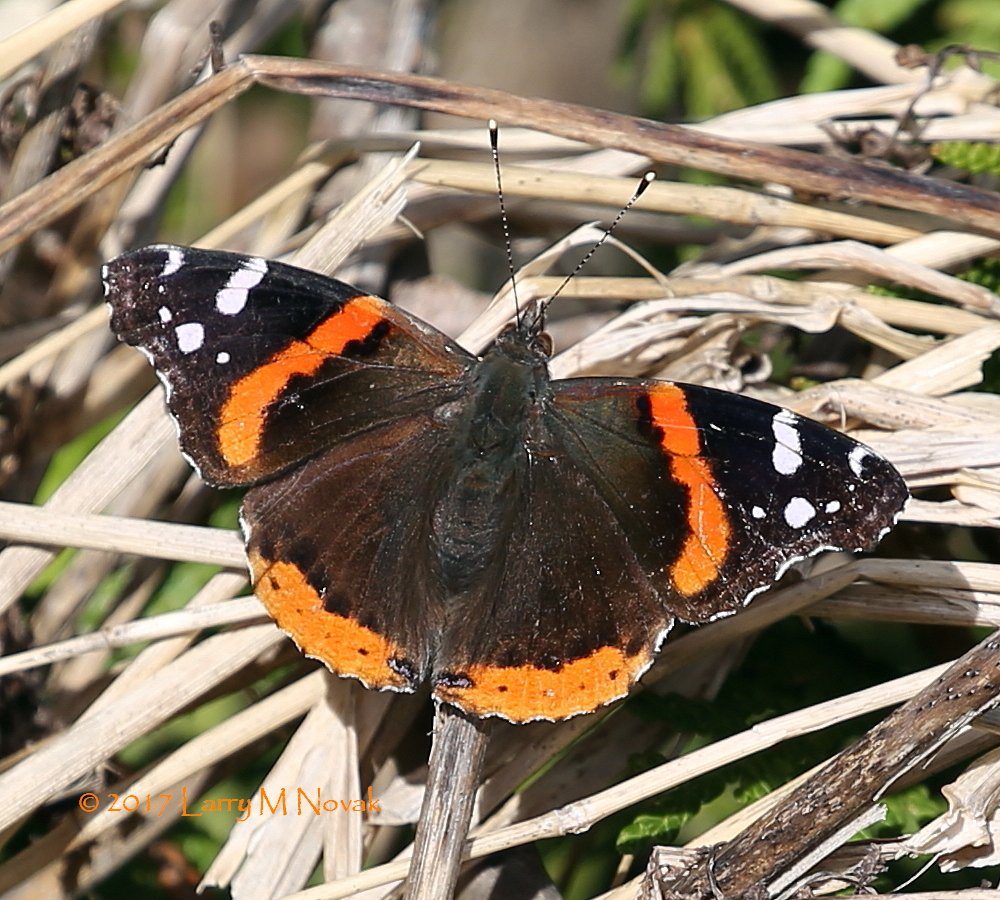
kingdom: Animalia
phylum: Arthropoda
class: Insecta
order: Lepidoptera
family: Nymphalidae
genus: Vanessa
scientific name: Vanessa atalanta
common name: Red Admiral
